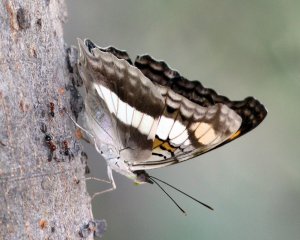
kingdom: Animalia
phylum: Arthropoda
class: Insecta
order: Lepidoptera
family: Nymphalidae
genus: Doxocopa
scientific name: Doxocopa laure
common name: Silver Emperor
